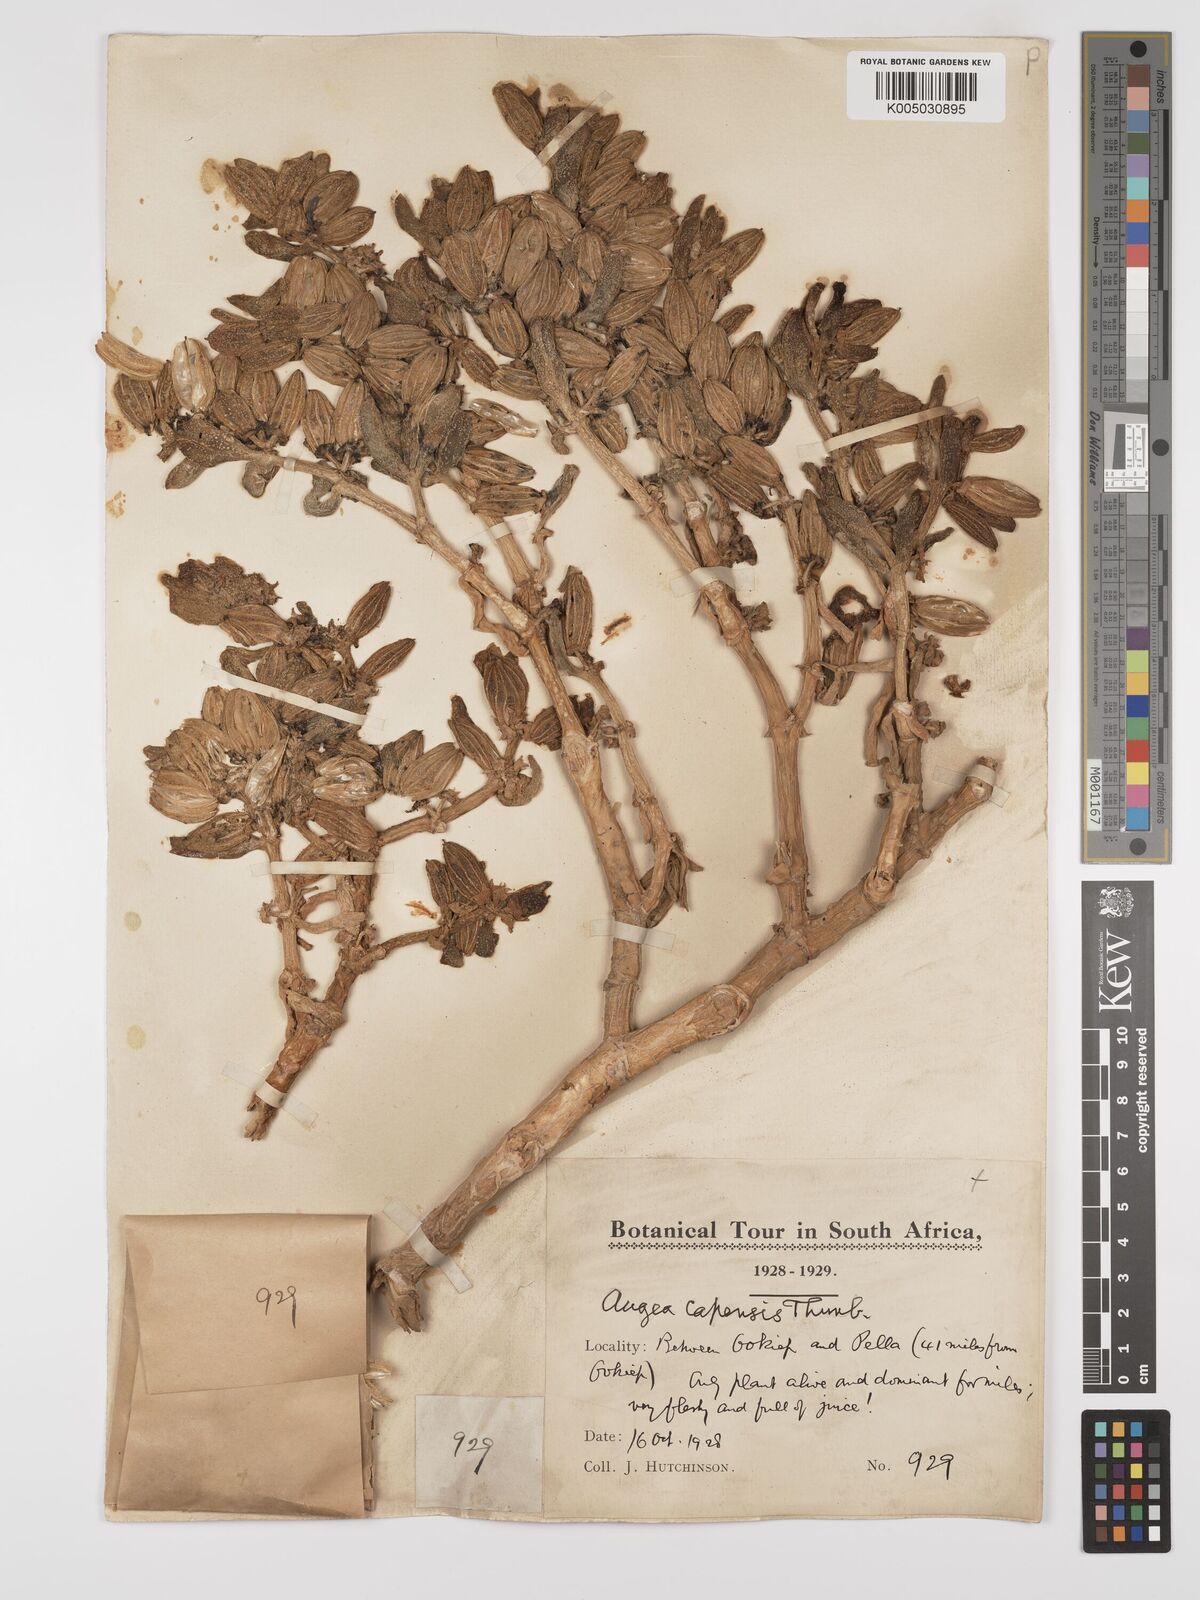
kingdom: Plantae
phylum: Tracheophyta
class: Magnoliopsida
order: Zygophyllales
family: Zygophyllaceae
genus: Augea
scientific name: Augea capensis
